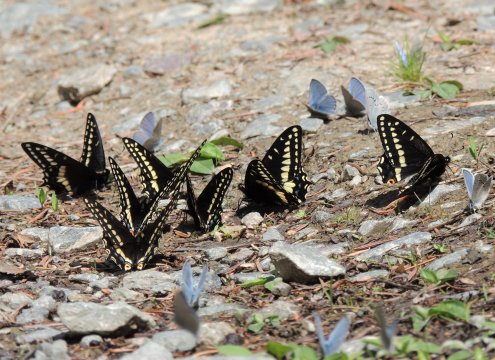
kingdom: Animalia
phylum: Arthropoda
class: Insecta
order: Lepidoptera
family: Papilionidae
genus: Papilio
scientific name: Papilio indra
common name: Indra Swallowtail
